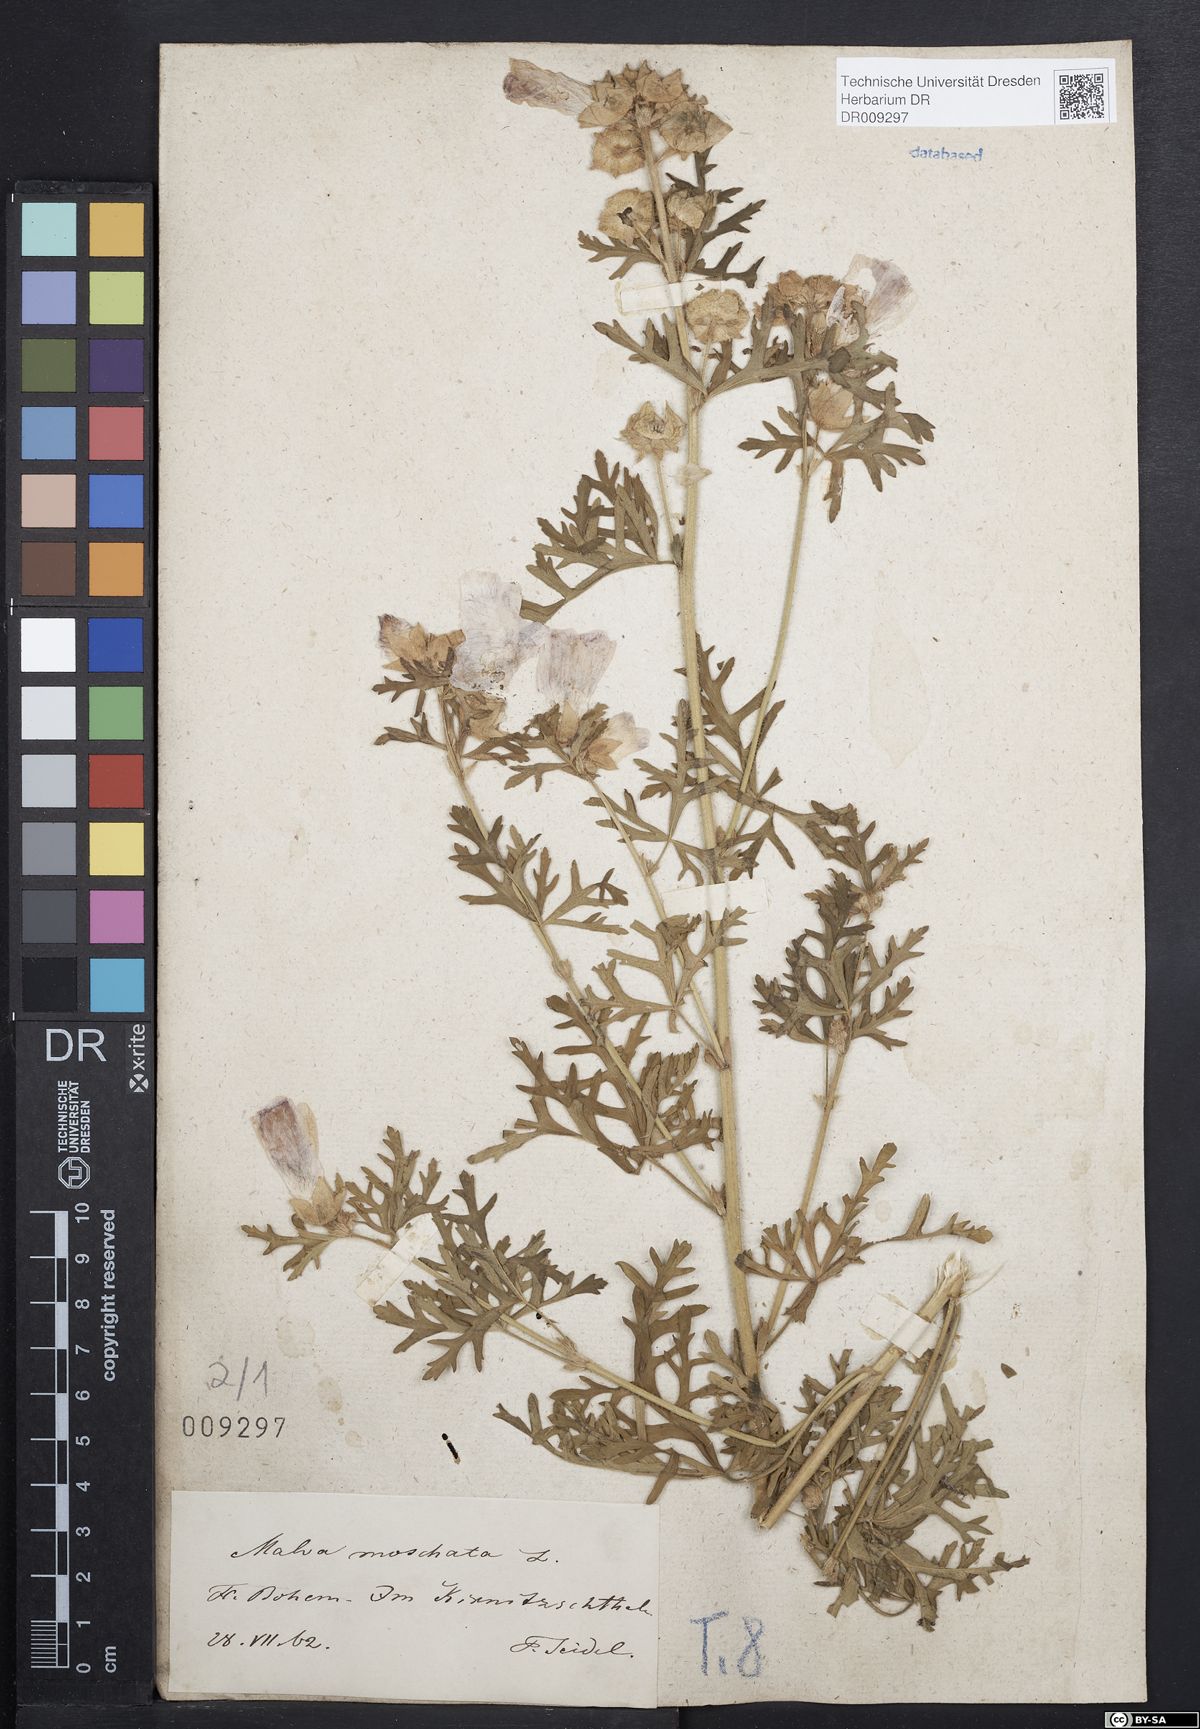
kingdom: Plantae
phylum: Tracheophyta
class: Magnoliopsida
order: Malvales
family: Malvaceae
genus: Malva
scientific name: Malva moschata
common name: Musk mallow
